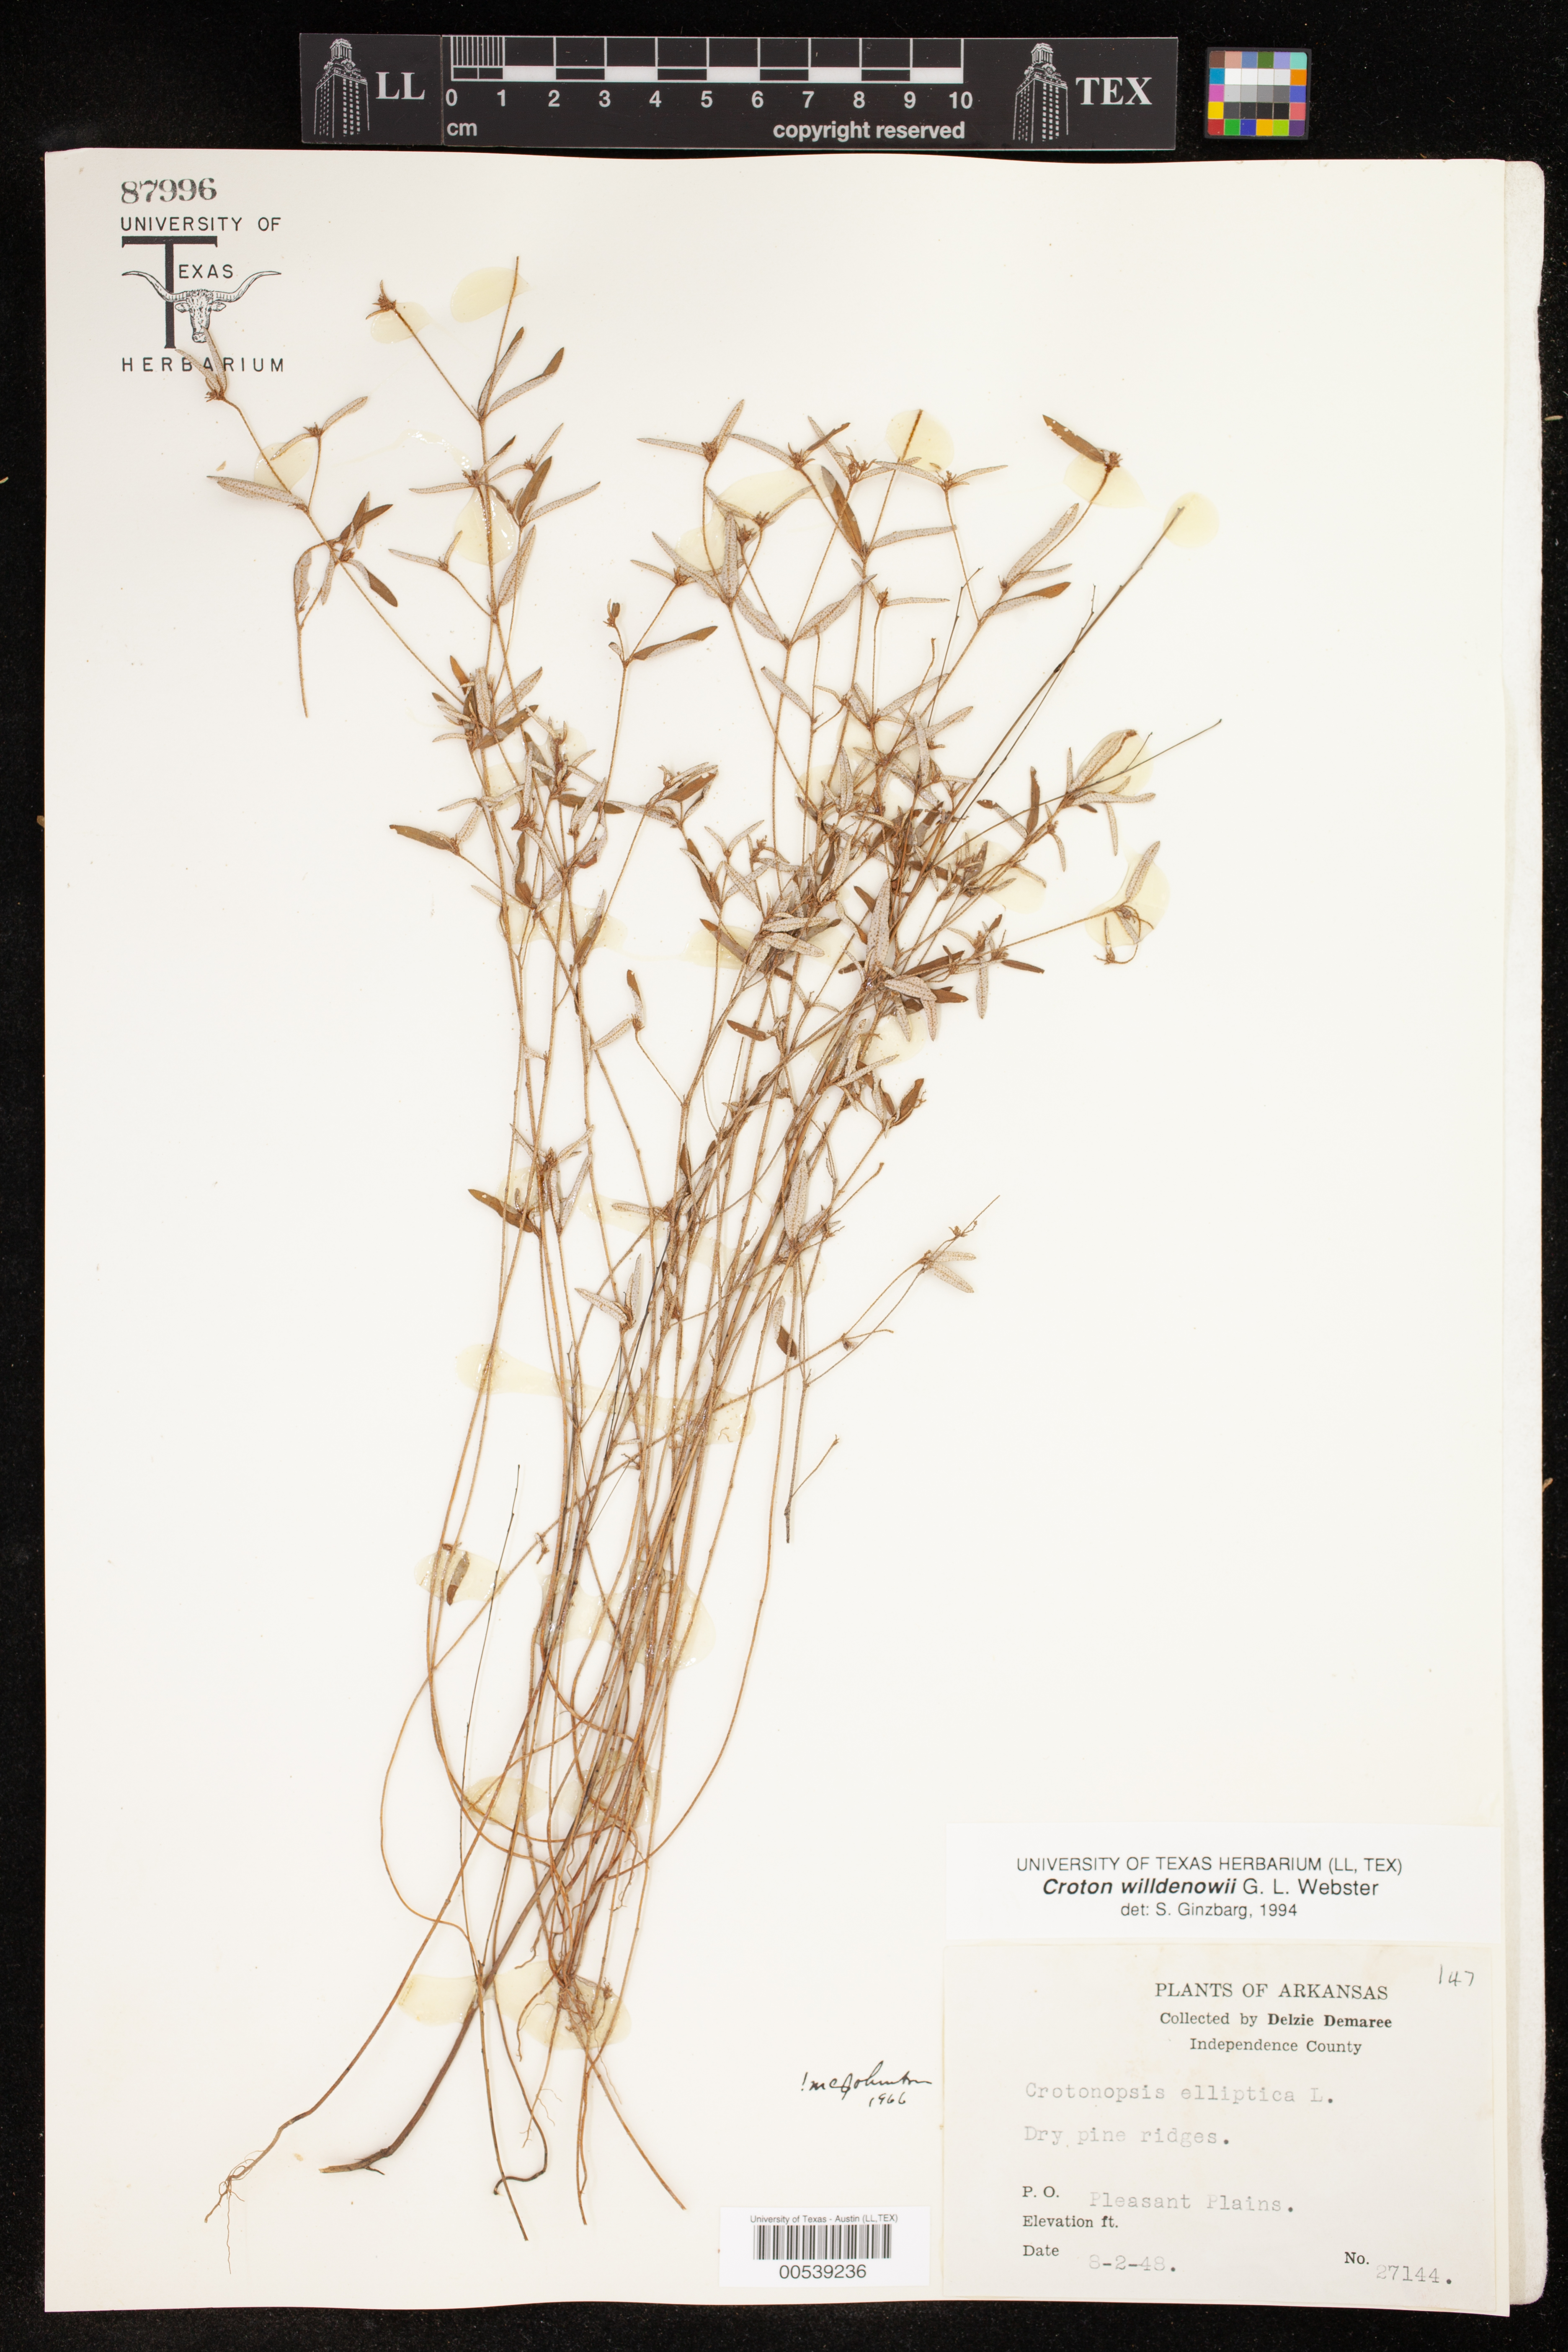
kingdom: Plantae
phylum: Tracheophyta
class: Magnoliopsida
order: Malpighiales
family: Euphorbiaceae
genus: Croton
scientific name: Croton michauxii
